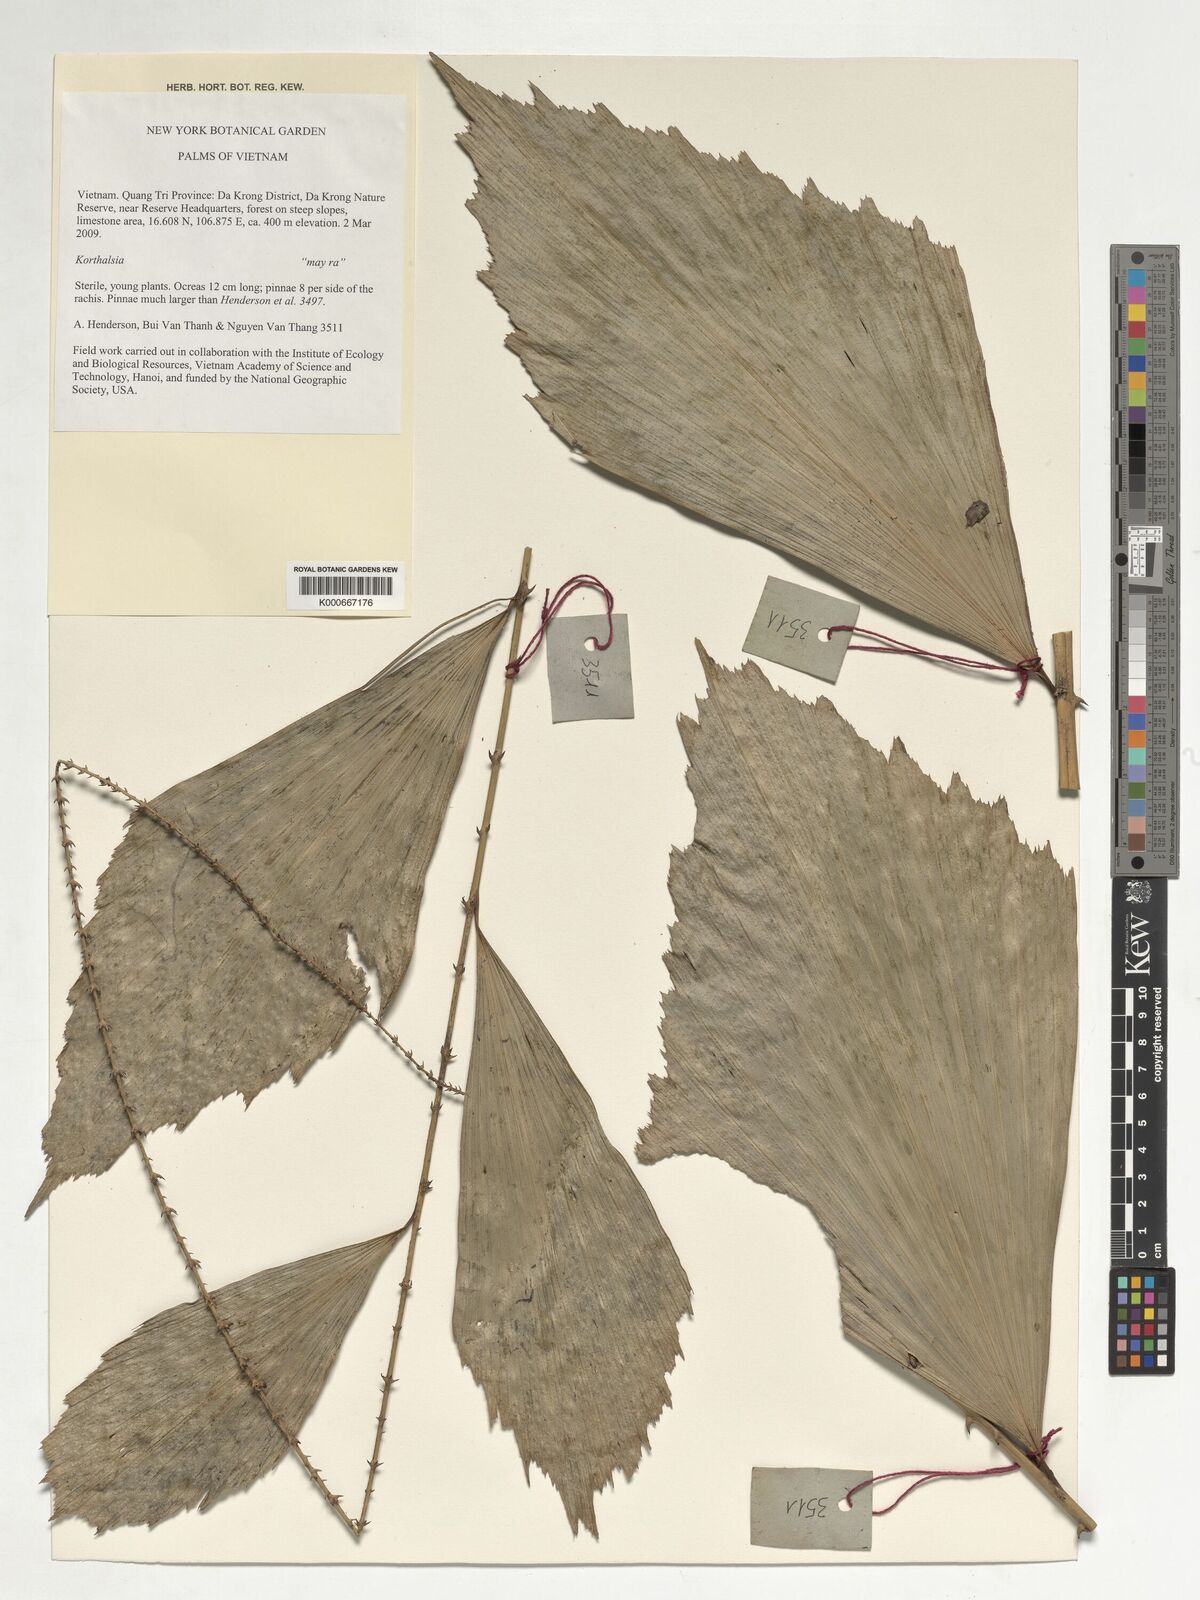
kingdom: Plantae
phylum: Tracheophyta
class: Liliopsida
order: Arecales
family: Arecaceae
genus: Korthalsia
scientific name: Korthalsia
